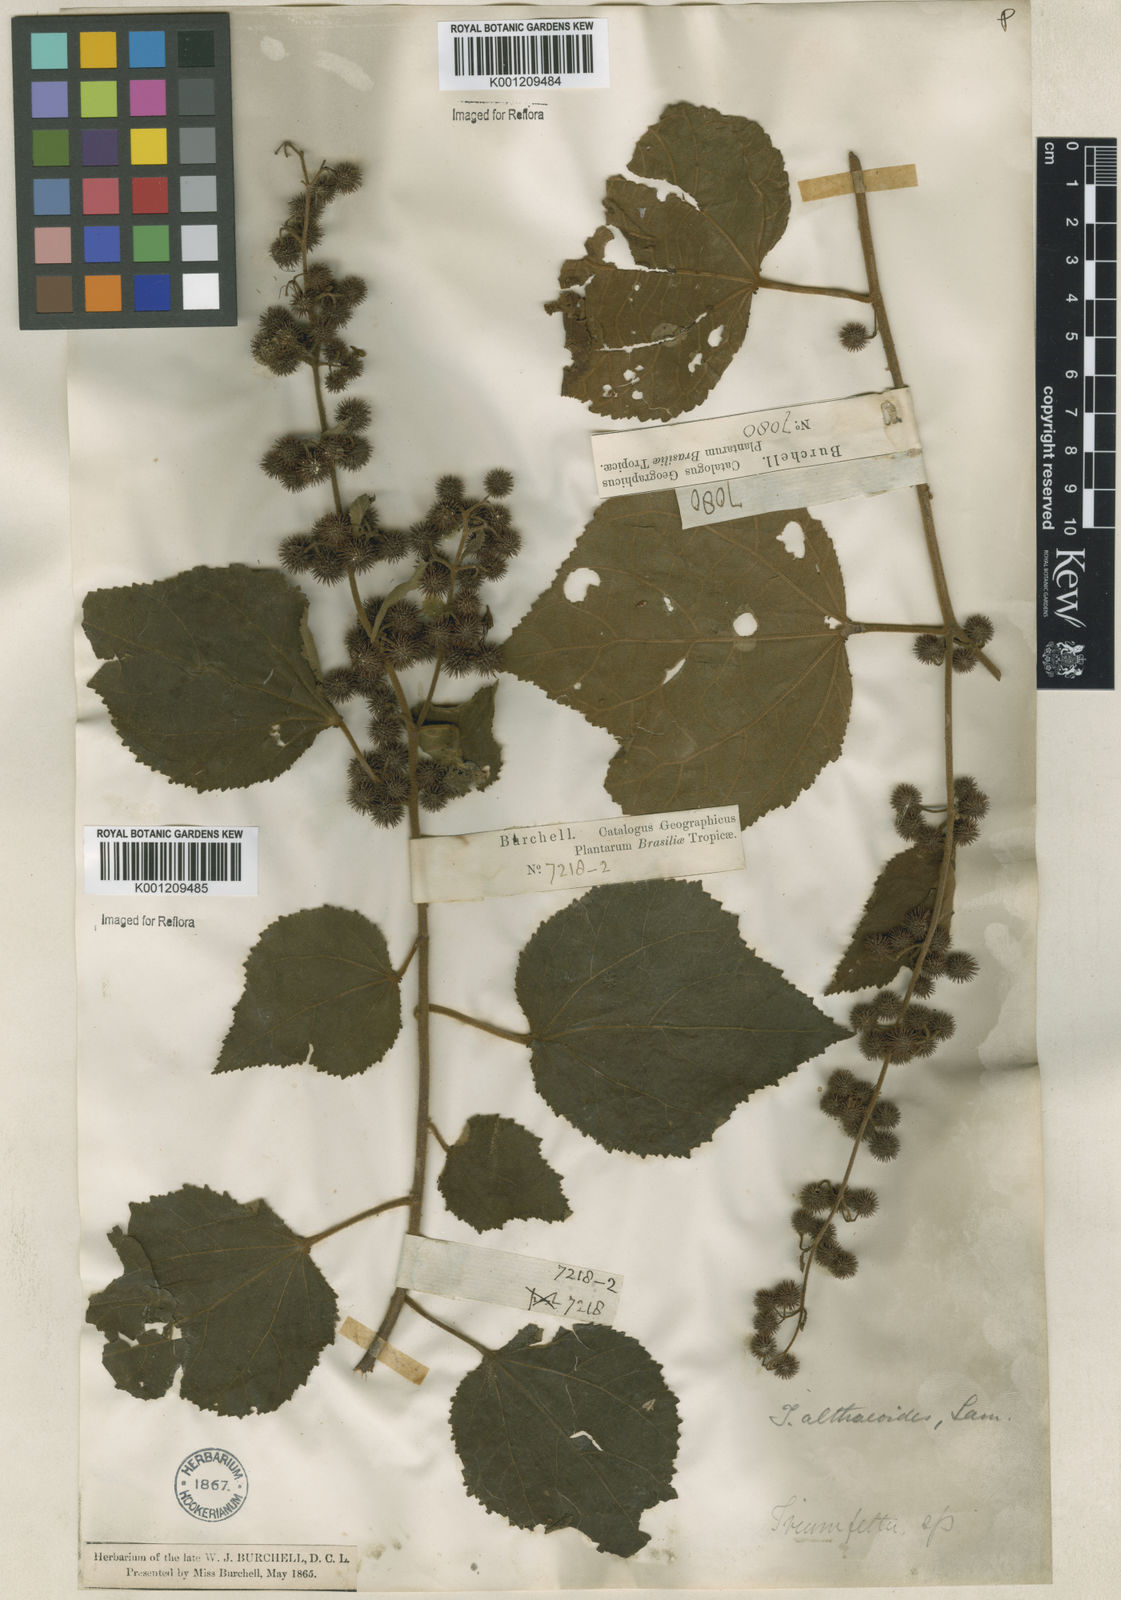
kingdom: Plantae
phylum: Tracheophyta
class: Magnoliopsida
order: Malvales
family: Malvaceae
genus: Triumfetta
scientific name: Triumfetta althaeoides
